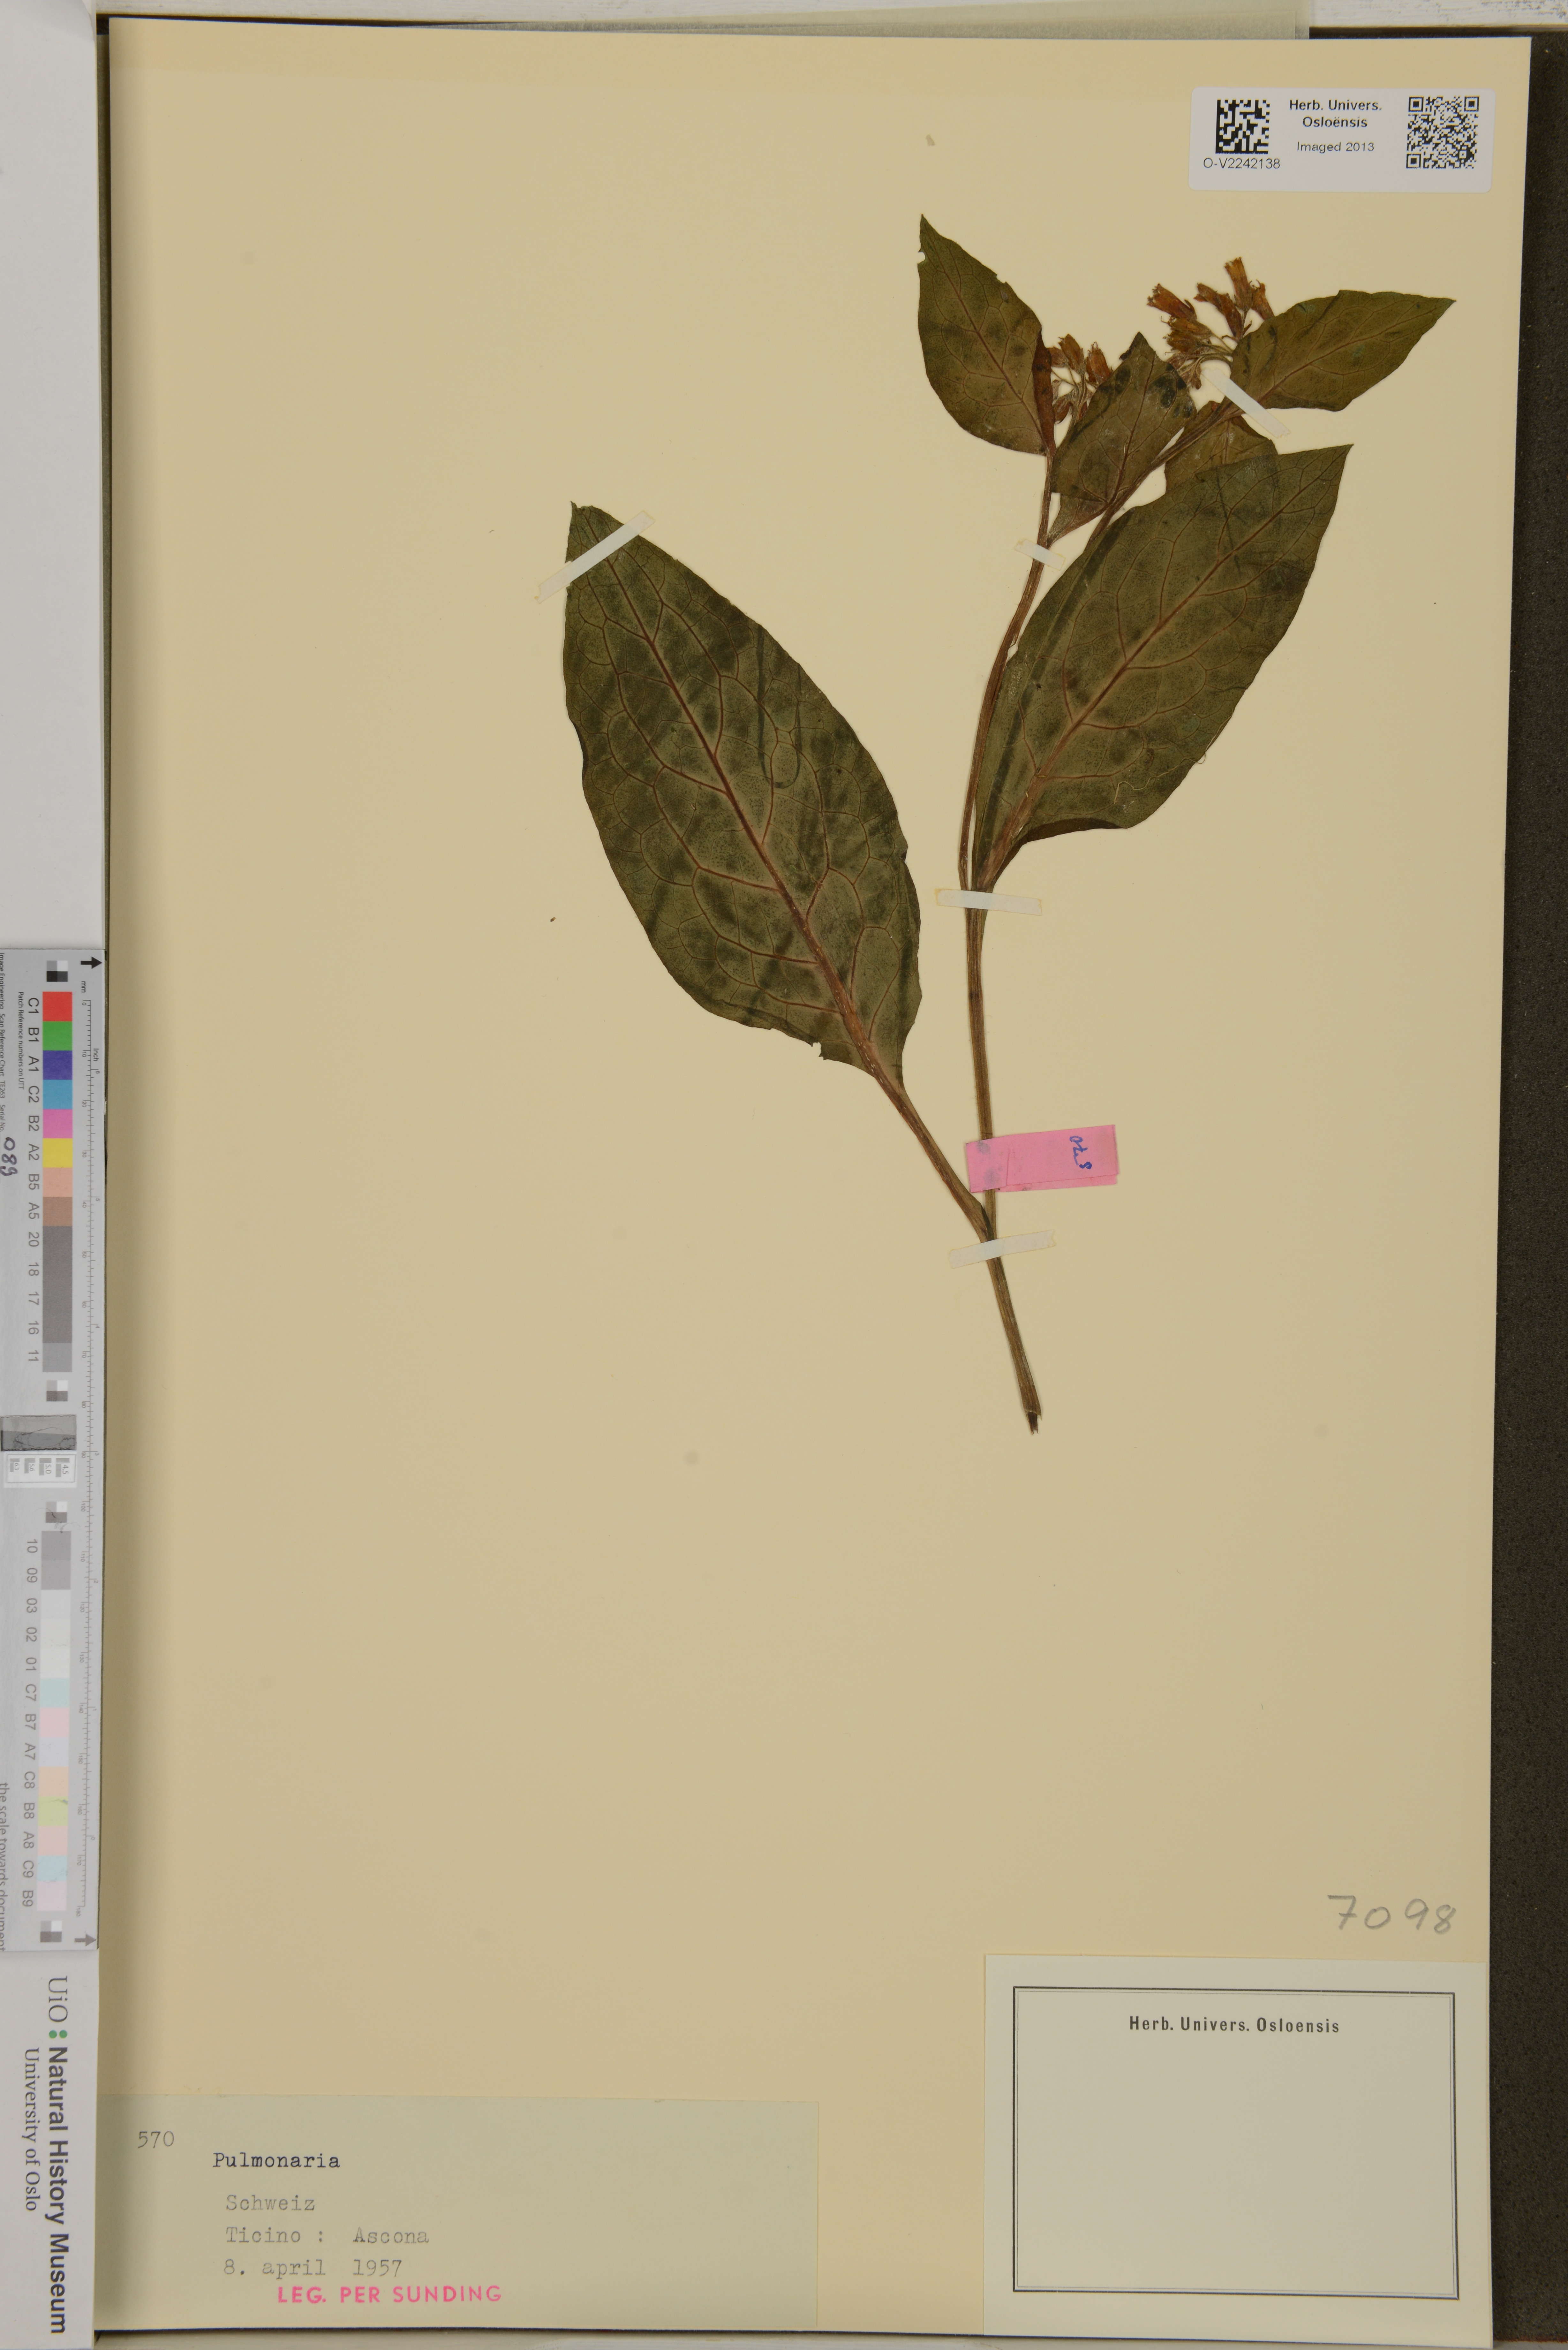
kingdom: Plantae
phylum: Tracheophyta
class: Magnoliopsida
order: Boraginales
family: Boraginaceae
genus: Pulmonaria
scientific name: Pulmonaria
